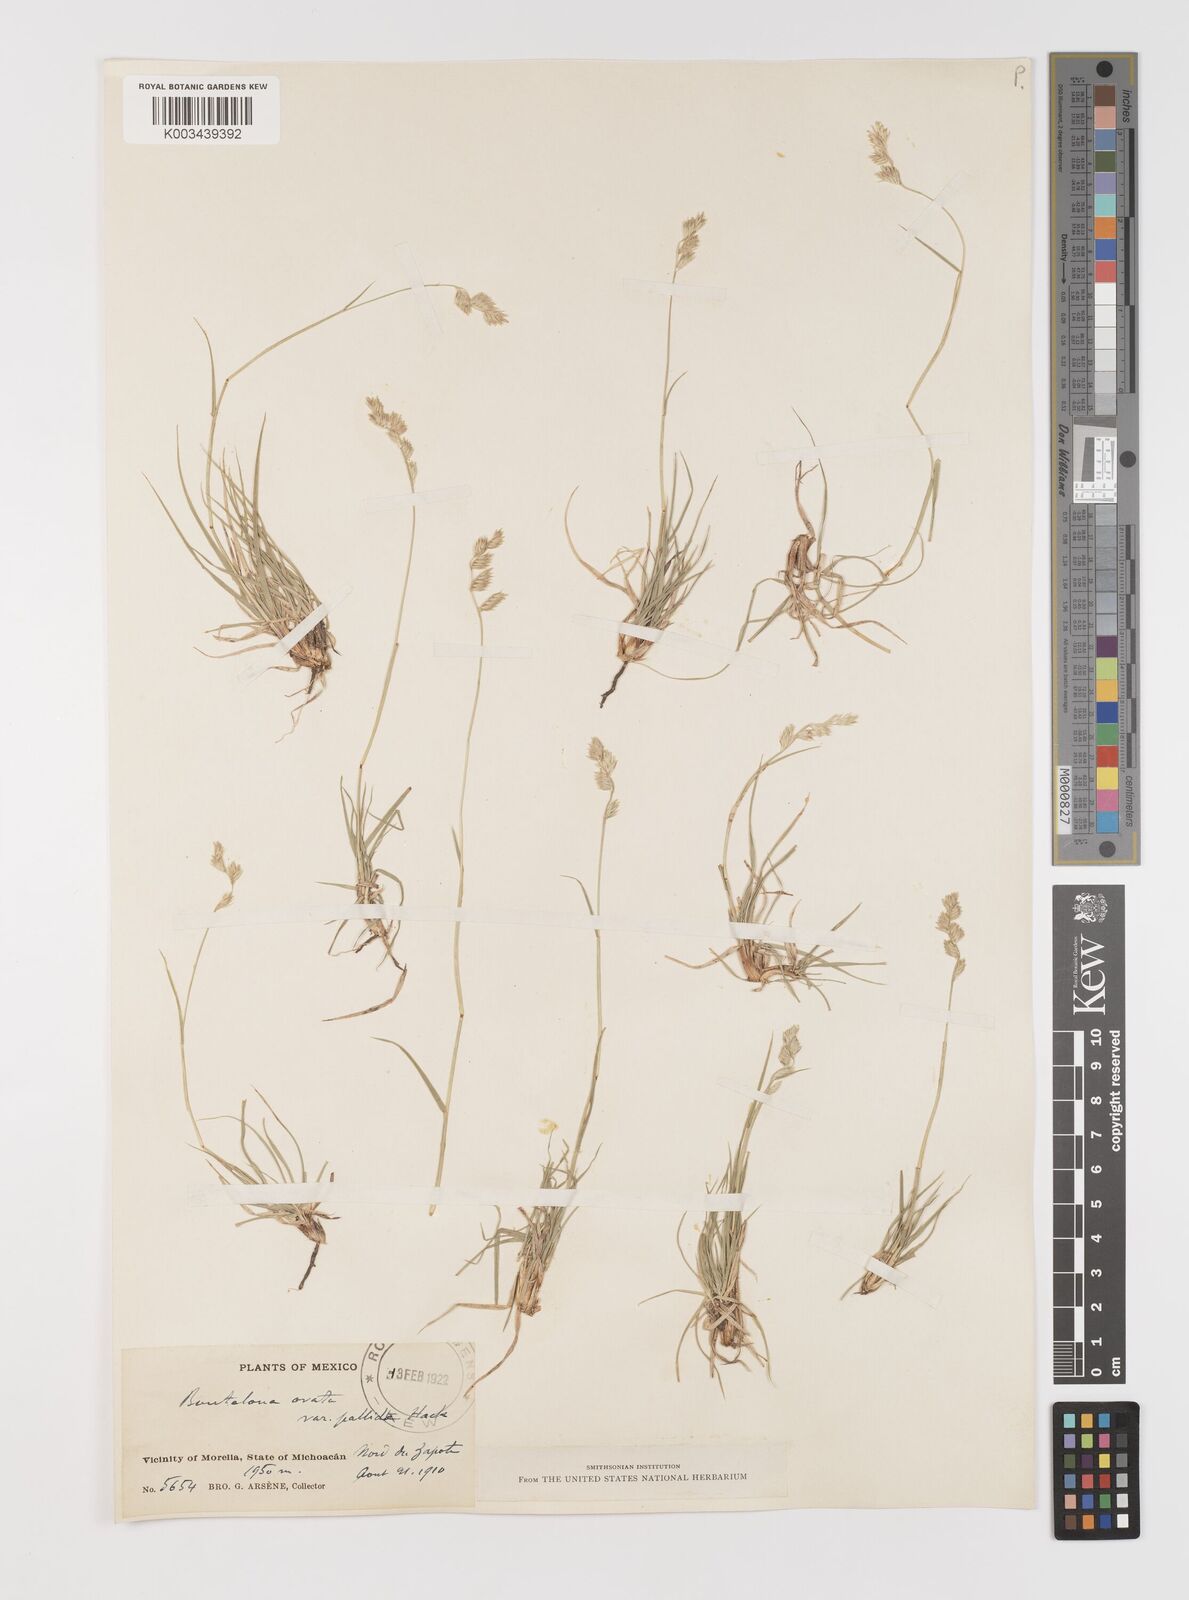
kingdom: Plantae
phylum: Tracheophyta
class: Liliopsida
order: Poales
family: Poaceae
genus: Bouteloua
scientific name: Bouteloua chondrosioides
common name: Sprucetop grama
